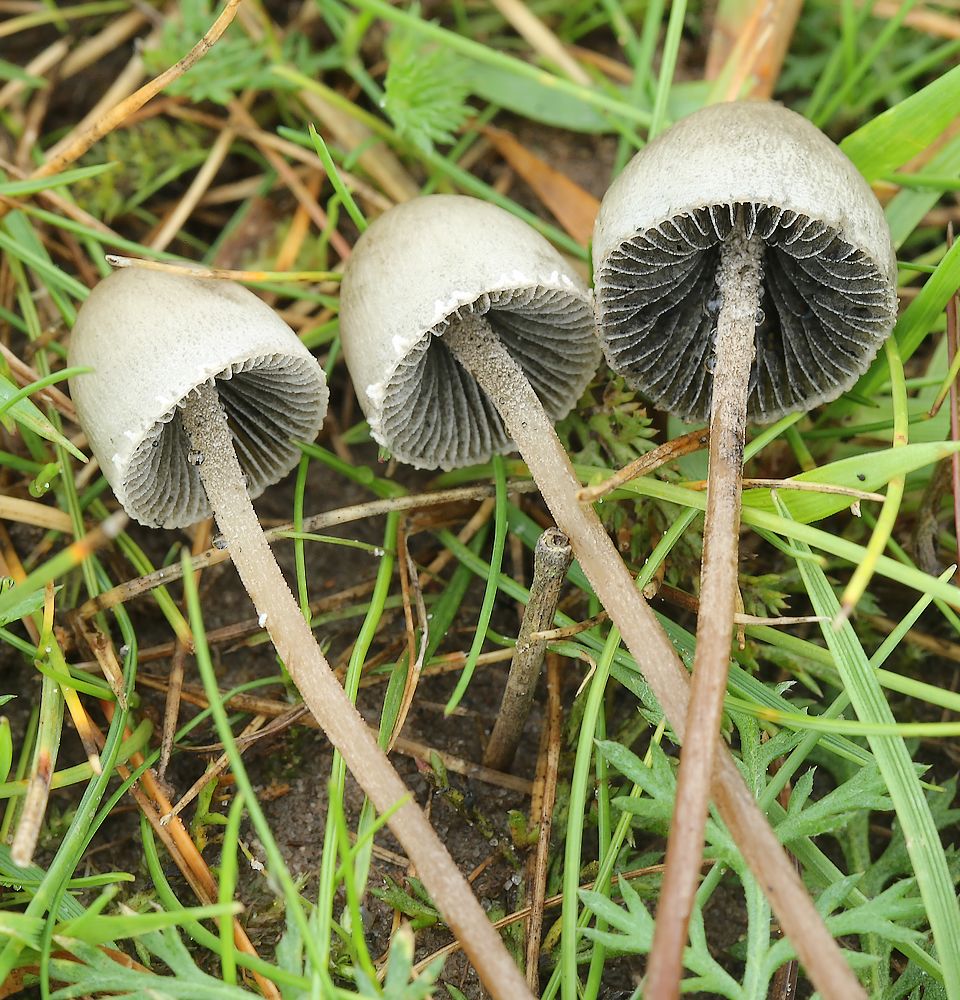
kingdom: Fungi
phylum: Basidiomycota
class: Agaricomycetes
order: Agaricales
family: Bolbitiaceae
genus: Panaeolus
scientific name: Panaeolus papilionaceus
